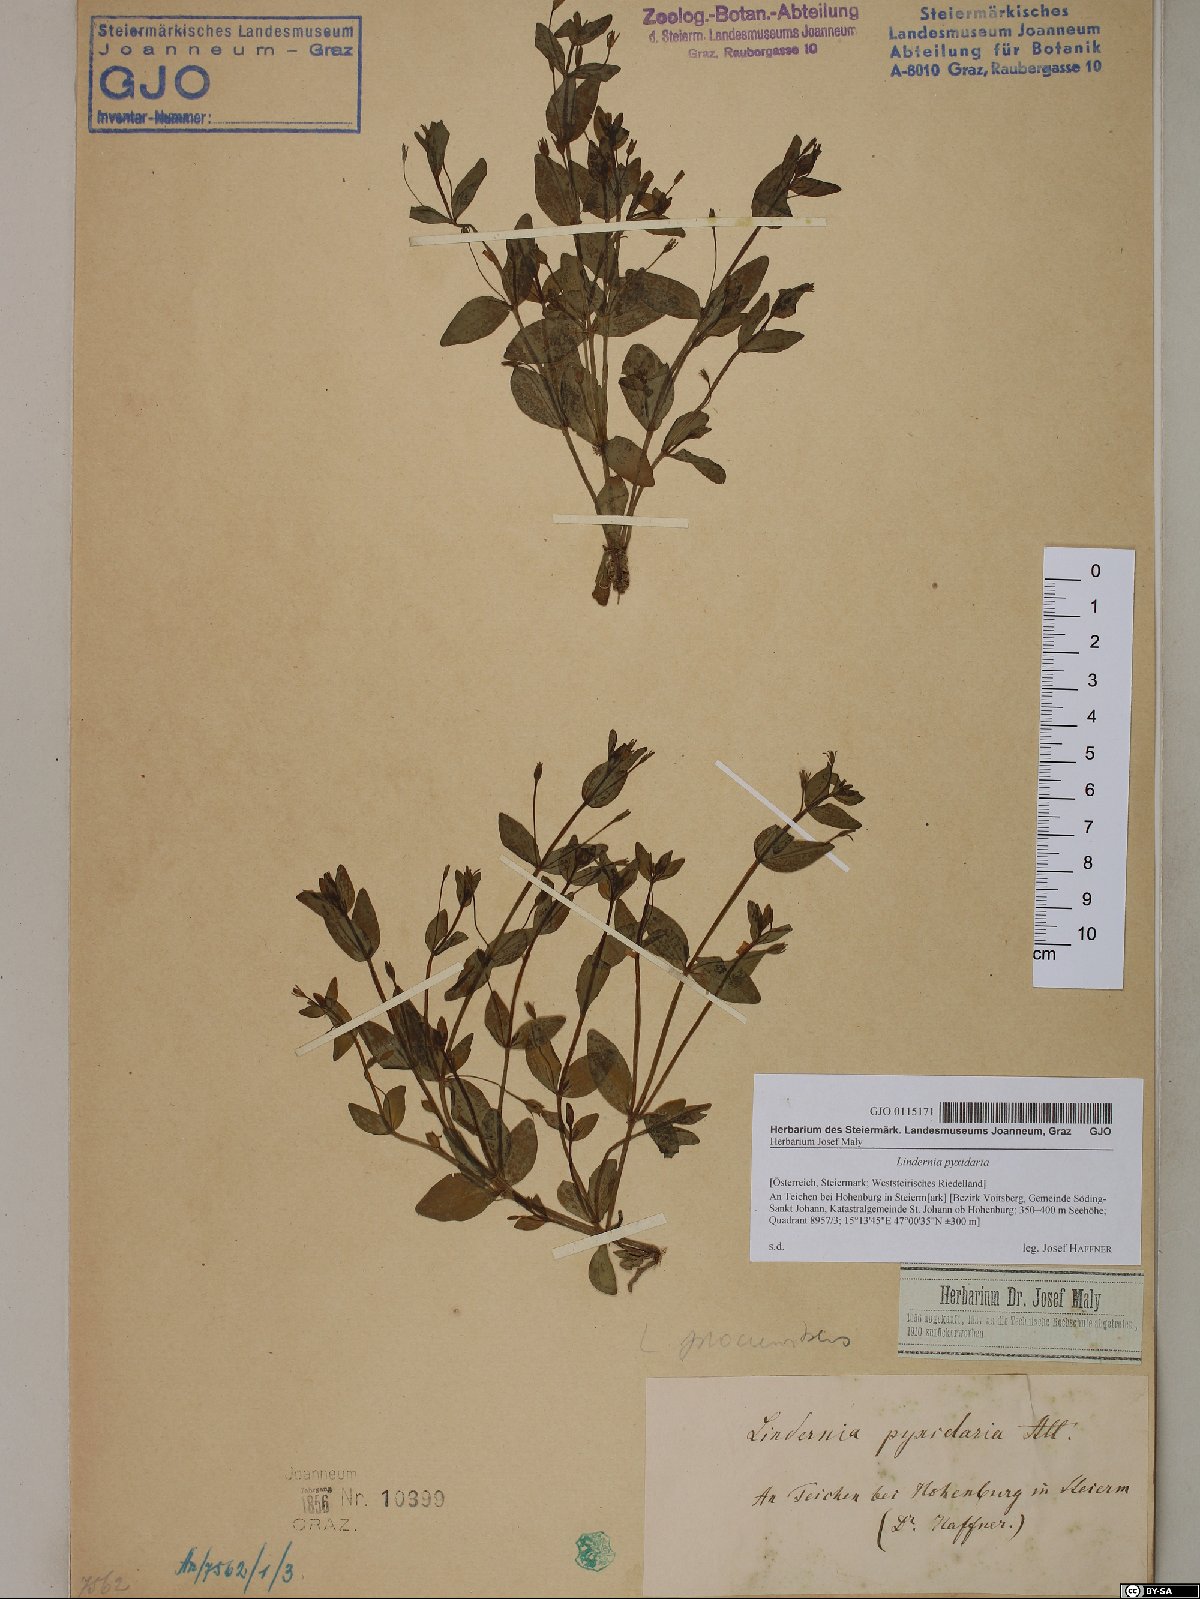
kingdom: Plantae
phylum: Tracheophyta
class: Magnoliopsida
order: Lamiales
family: Linderniaceae
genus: Lindernia
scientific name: Lindernia dubia
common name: Annual false pimpernel
